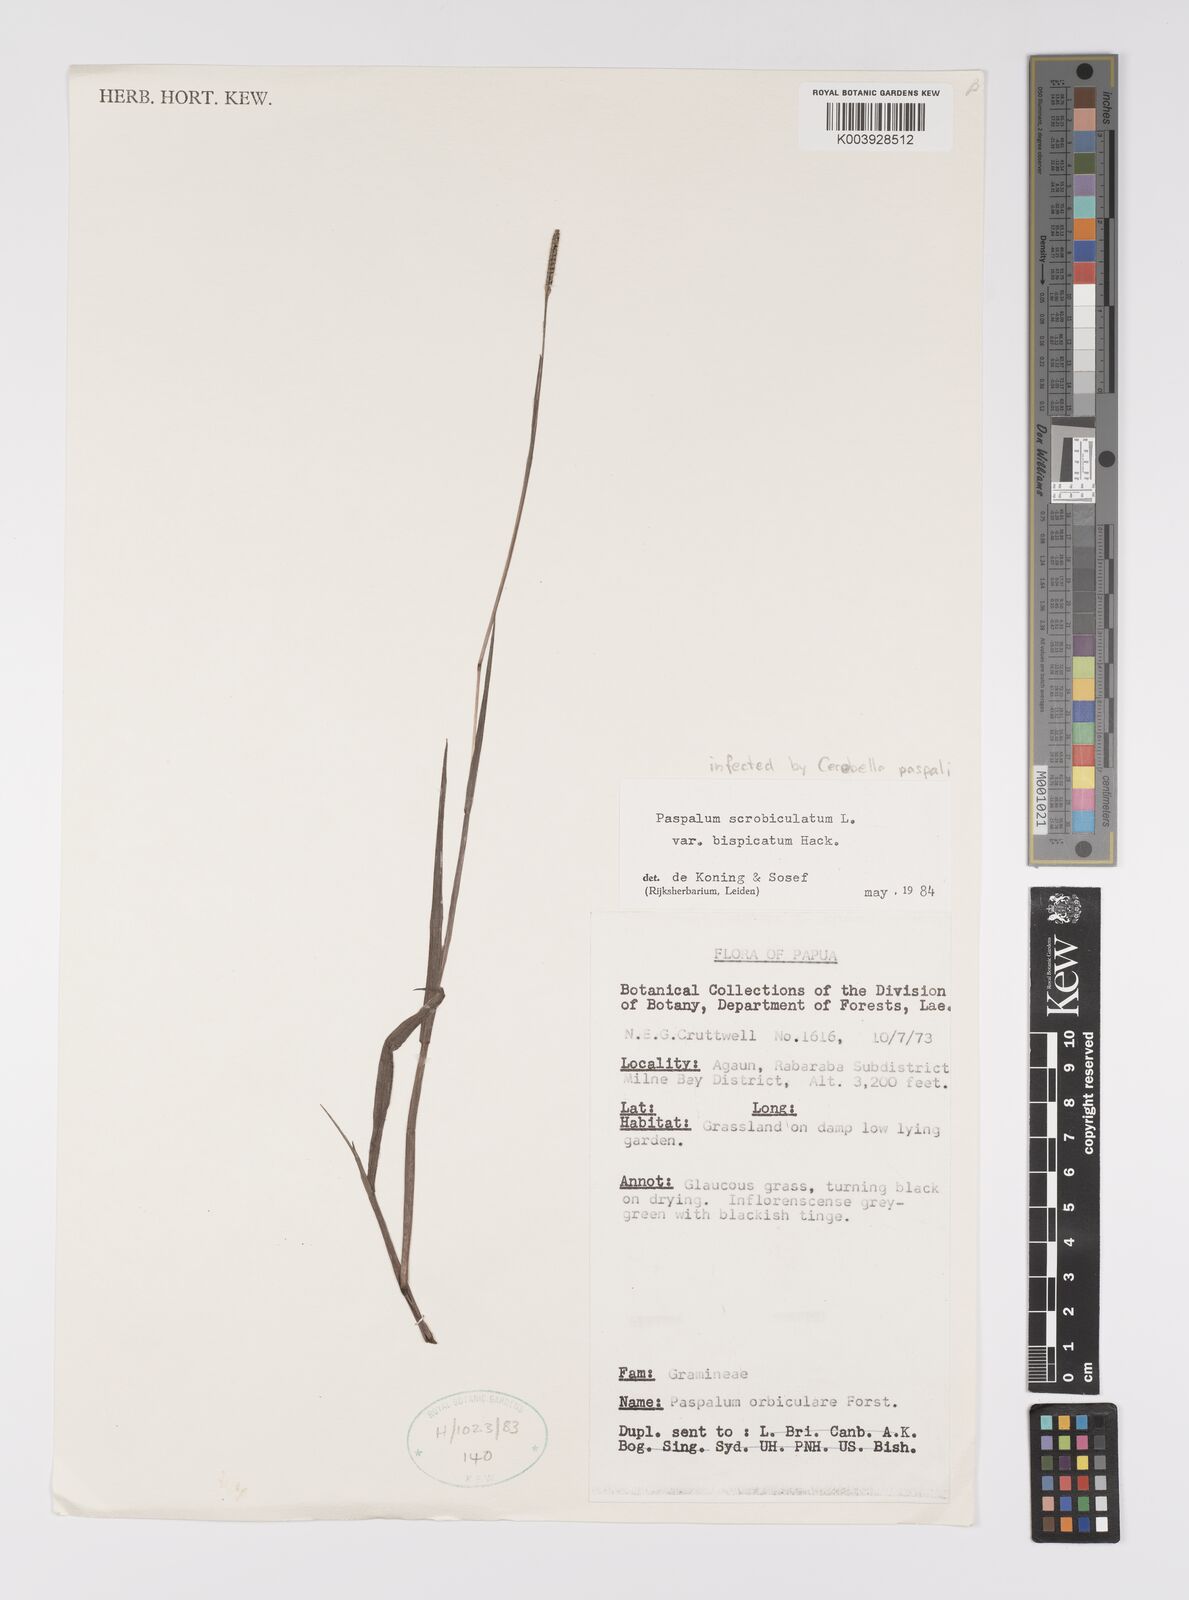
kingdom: Plantae
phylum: Tracheophyta
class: Liliopsida
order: Poales
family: Poaceae
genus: Paspalum
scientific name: Paspalum scrobiculatum
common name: Kodo millet
